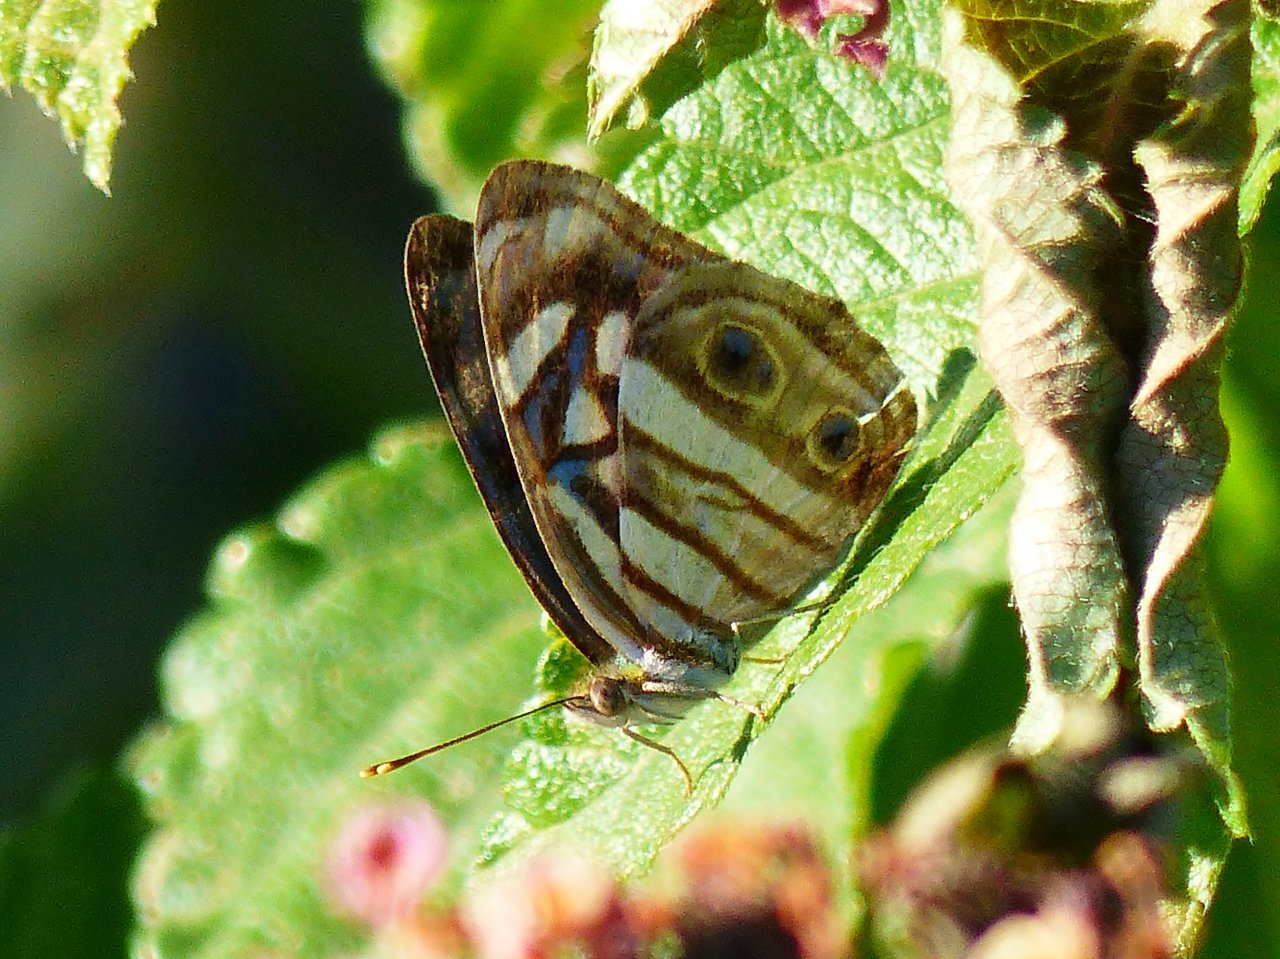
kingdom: Animalia
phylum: Arthropoda
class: Insecta
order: Lepidoptera
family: Nymphalidae
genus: Dynamine
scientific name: Dynamine mylitta
